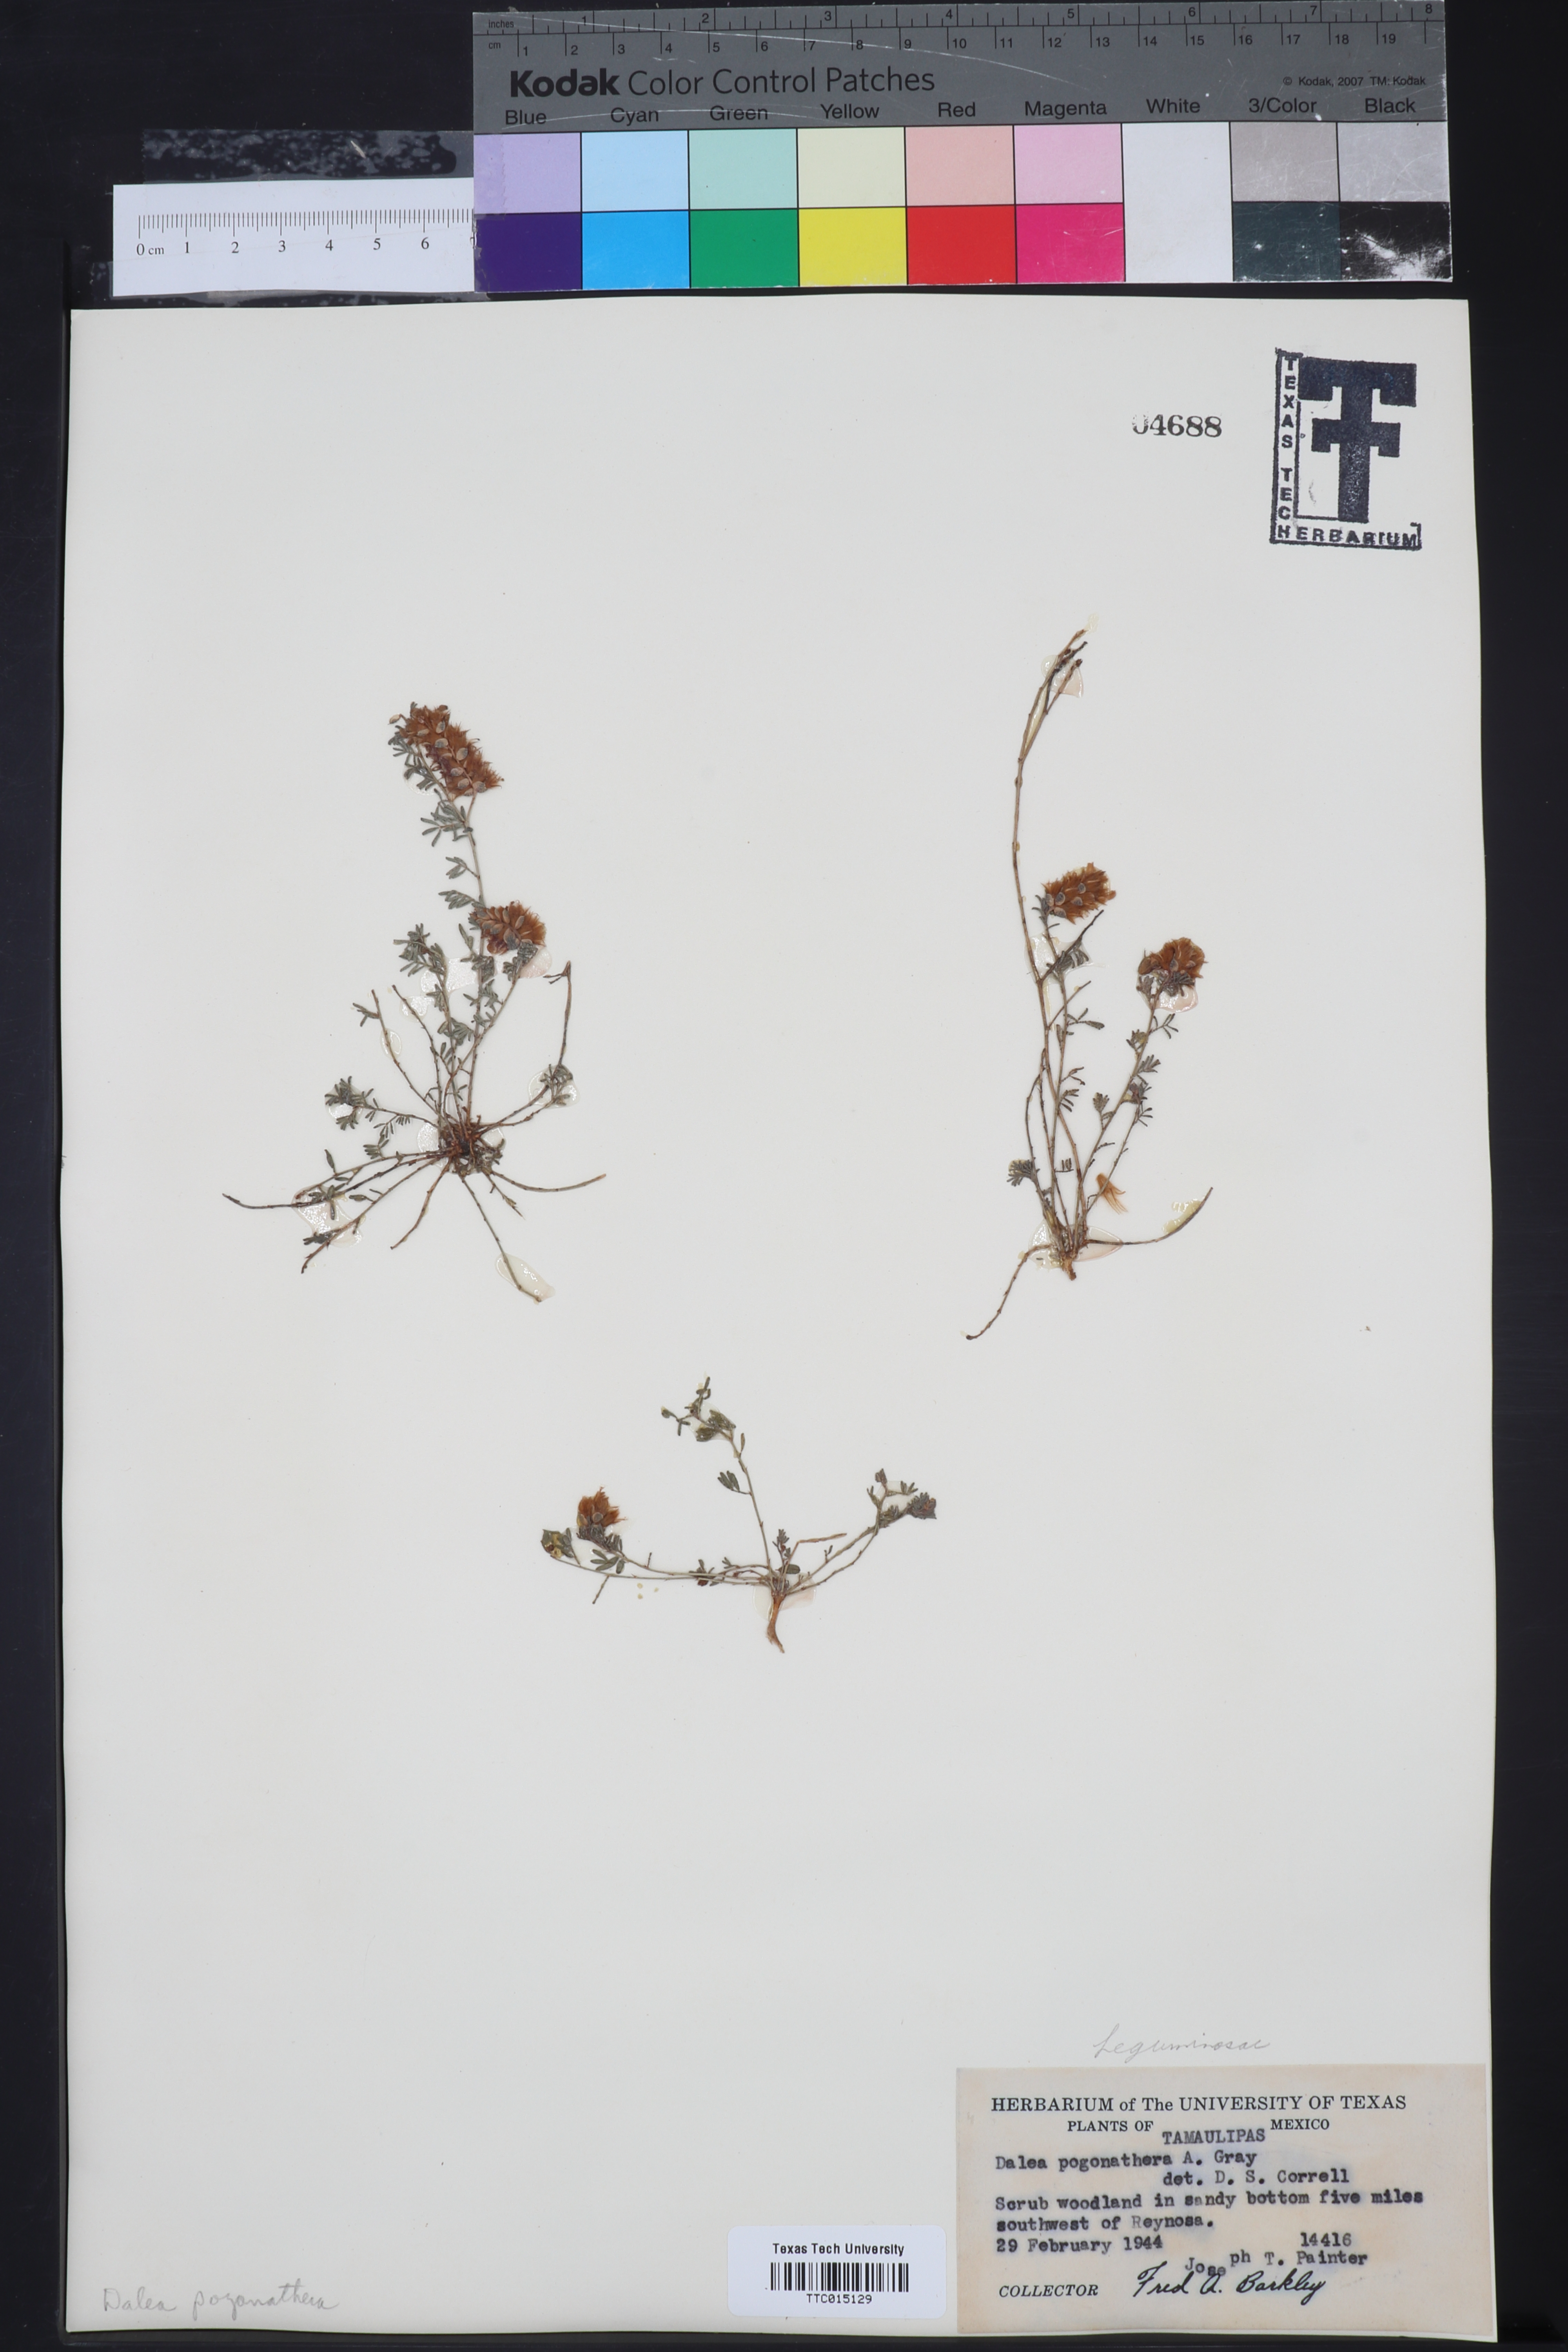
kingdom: Plantae
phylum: Tracheophyta
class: Magnoliopsida
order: Fabales
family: Fabaceae
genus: Dalea
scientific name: Dalea pogonathera
